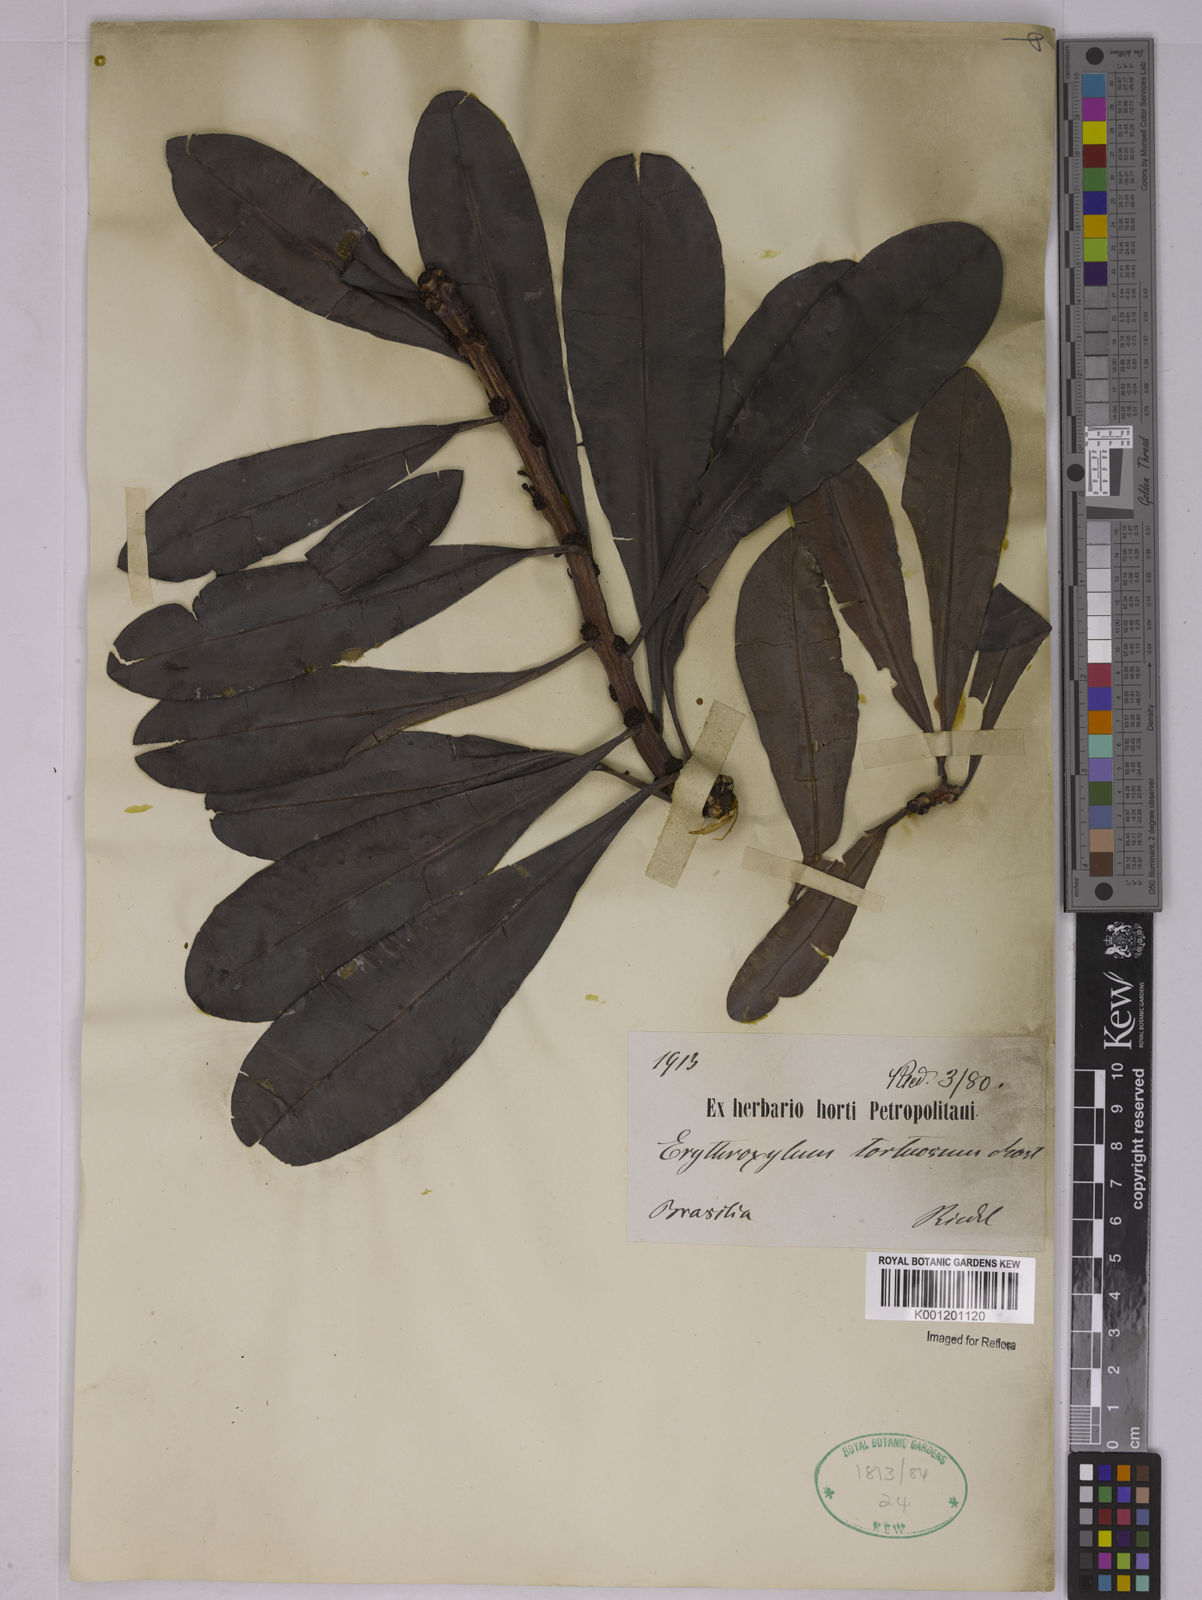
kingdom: Plantae
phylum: Tracheophyta
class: Magnoliopsida
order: Malpighiales
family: Erythroxylaceae
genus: Erythroxylum
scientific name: Erythroxylum tortuosum
